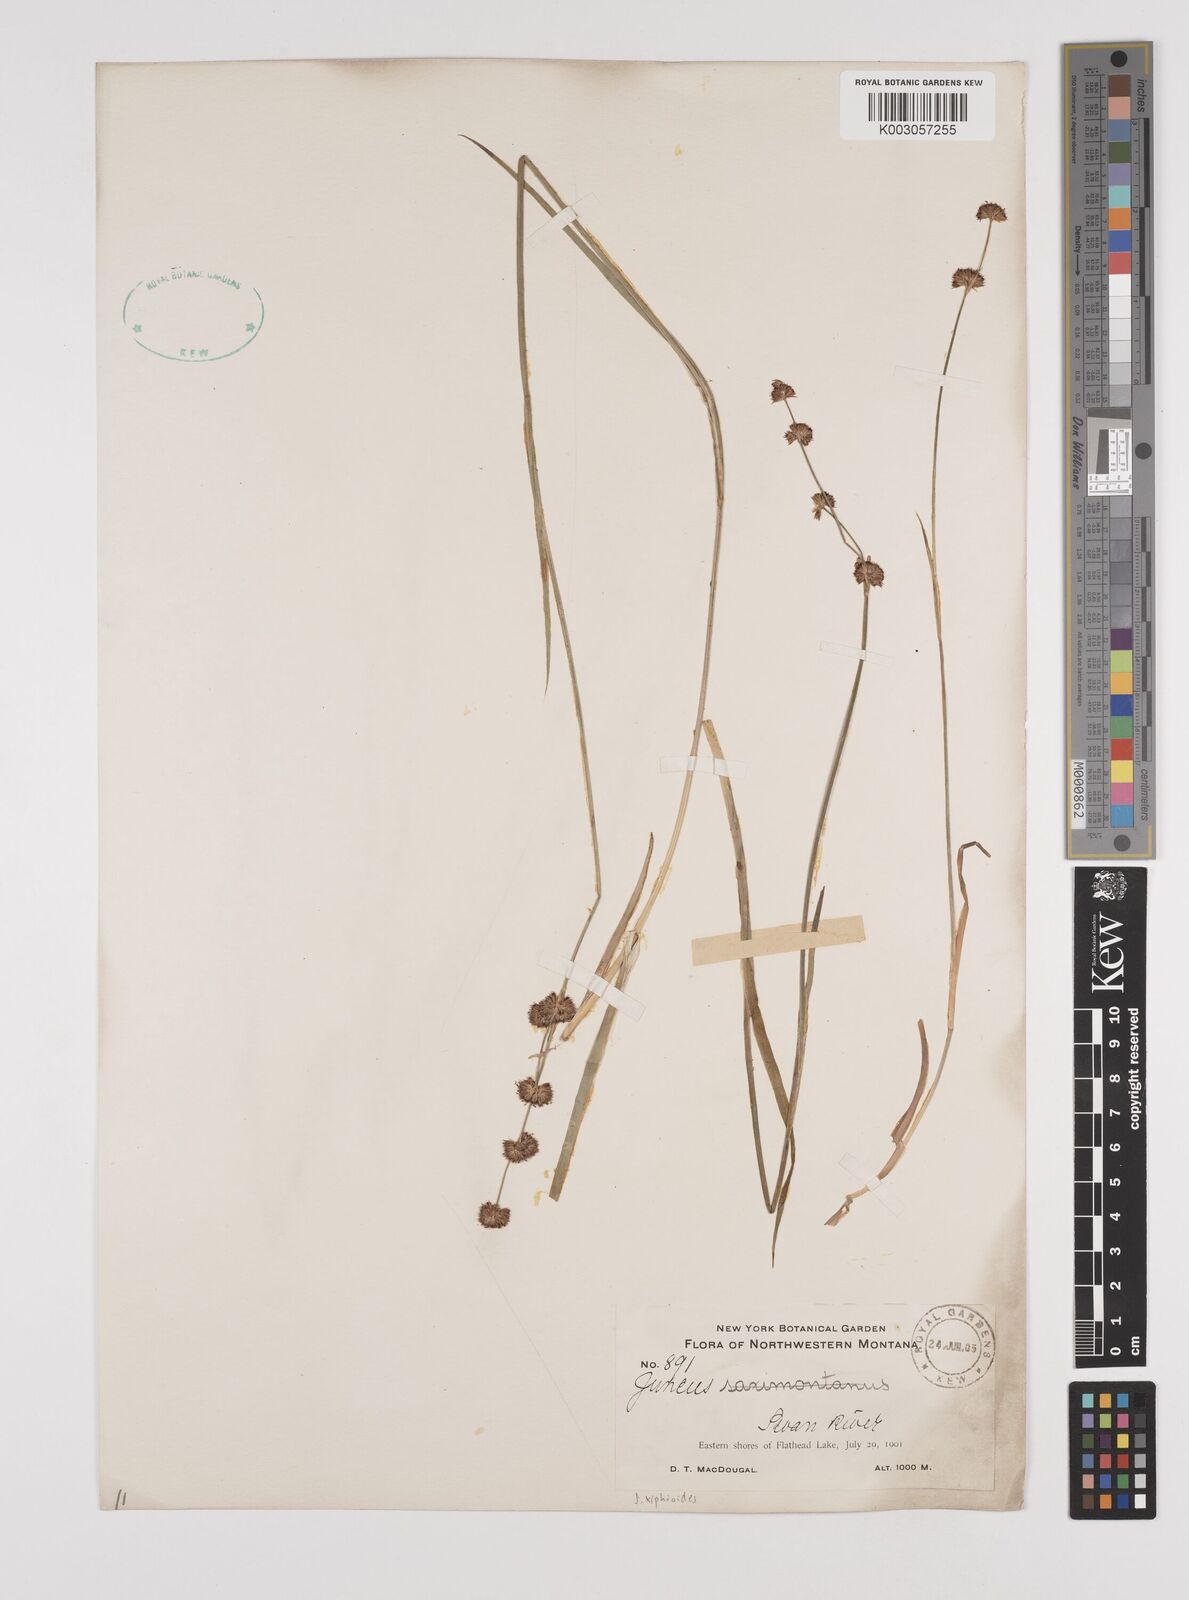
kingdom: Plantae
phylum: Tracheophyta
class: Liliopsida
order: Poales
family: Juncaceae
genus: Juncus
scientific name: Juncus xiphioides
